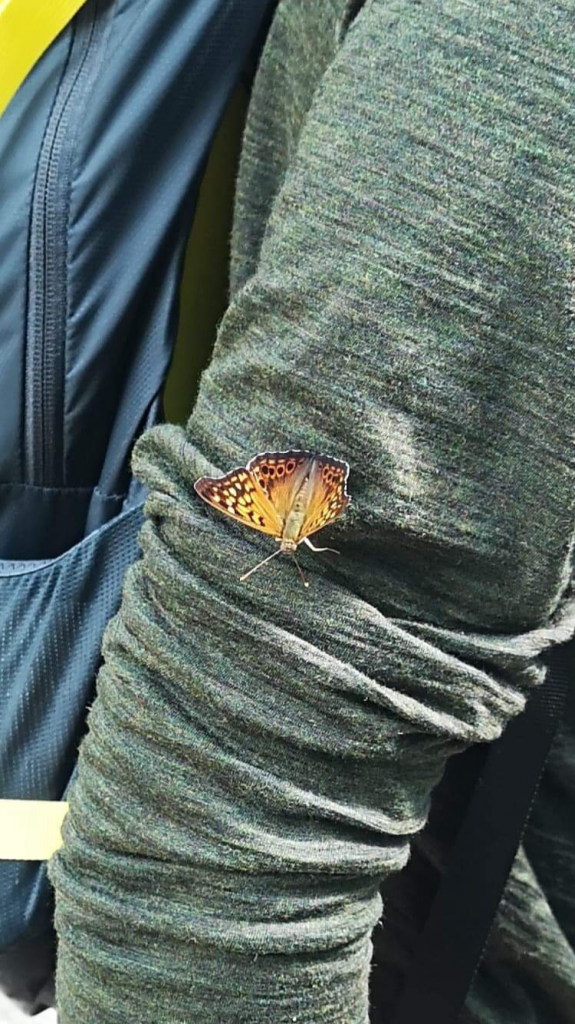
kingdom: Animalia
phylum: Arthropoda
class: Insecta
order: Lepidoptera
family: Nymphalidae
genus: Asterocampa
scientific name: Asterocampa clyton
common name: Tawny Emperor
